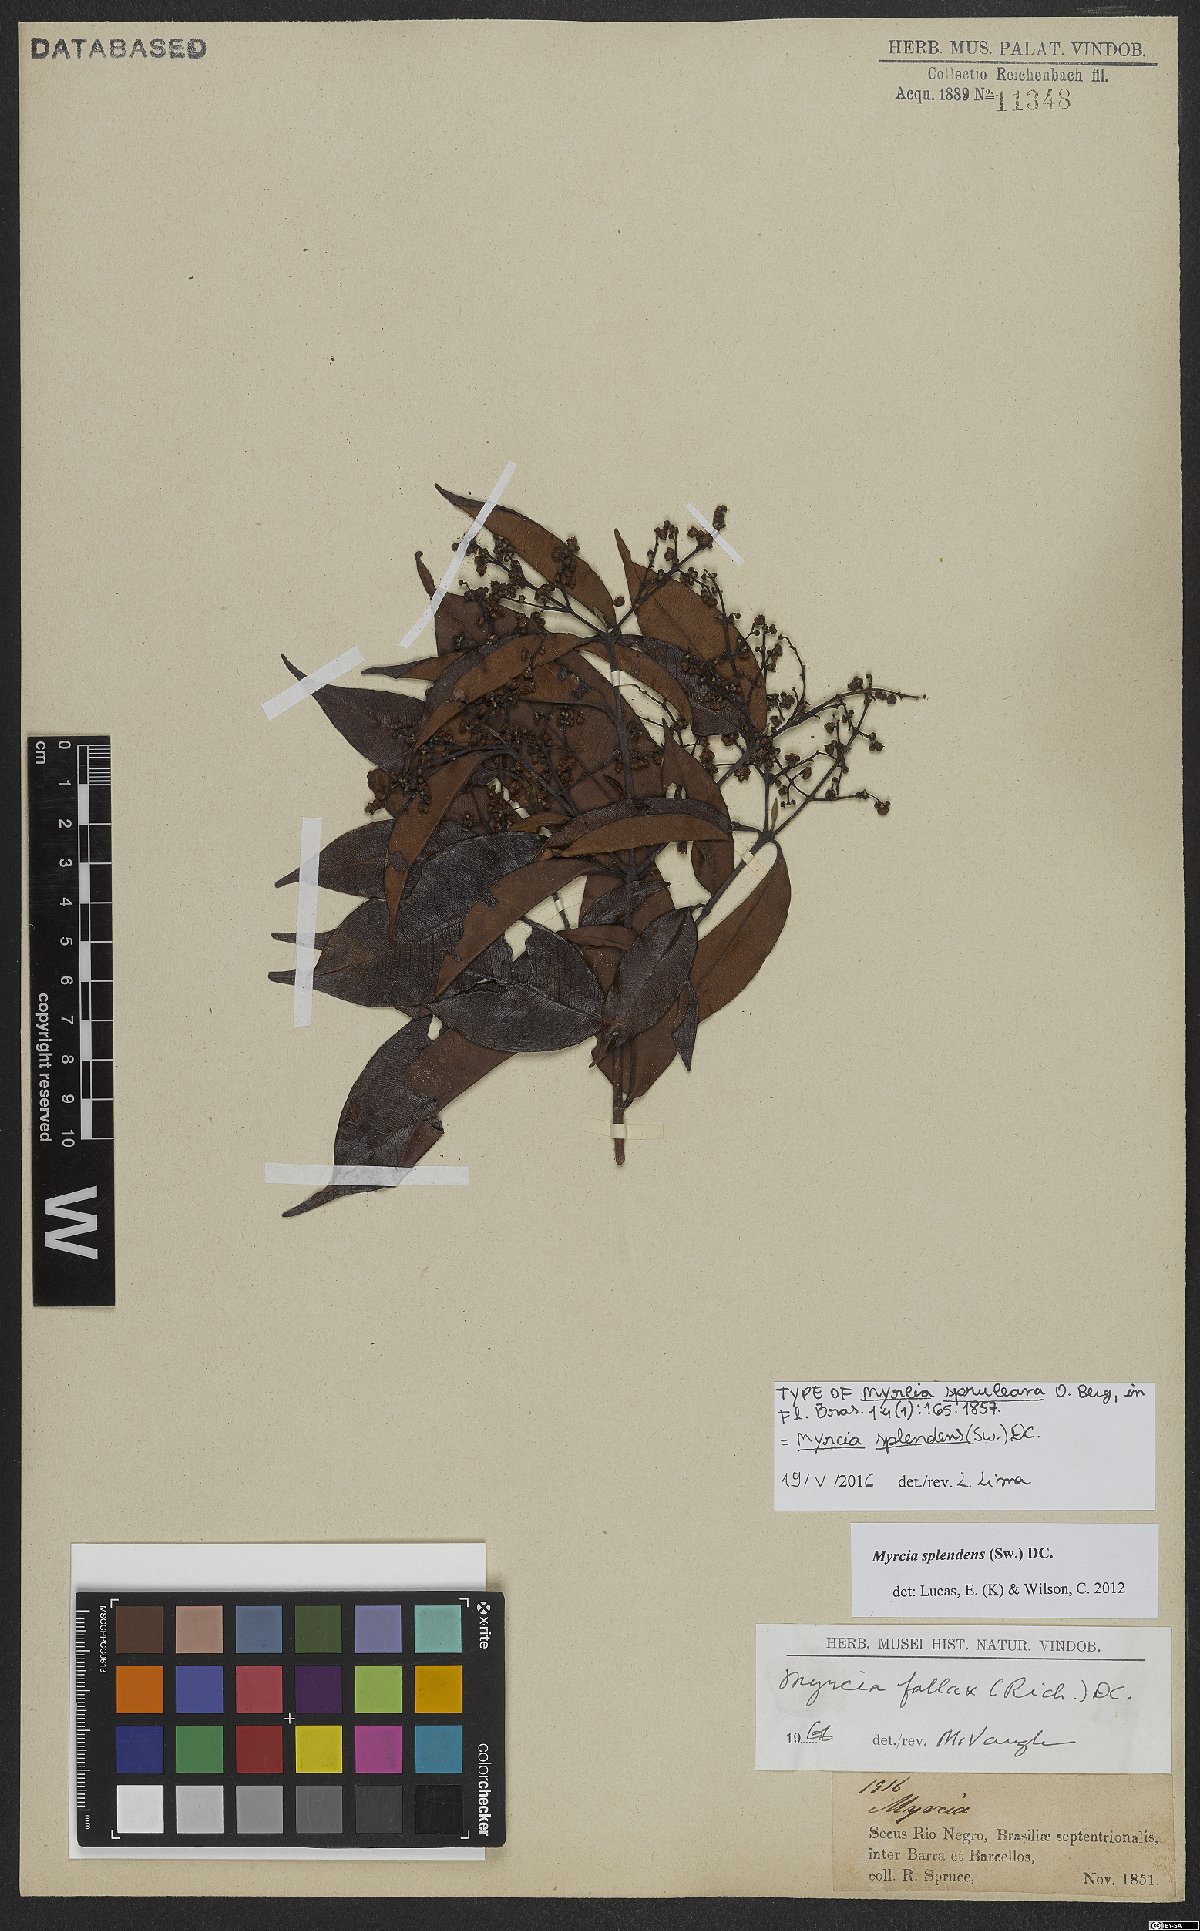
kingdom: Plantae
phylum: Tracheophyta
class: Magnoliopsida
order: Myrtales
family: Myrtaceae
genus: Myrcia
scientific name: Myrcia splendens
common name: Surinam cherry
